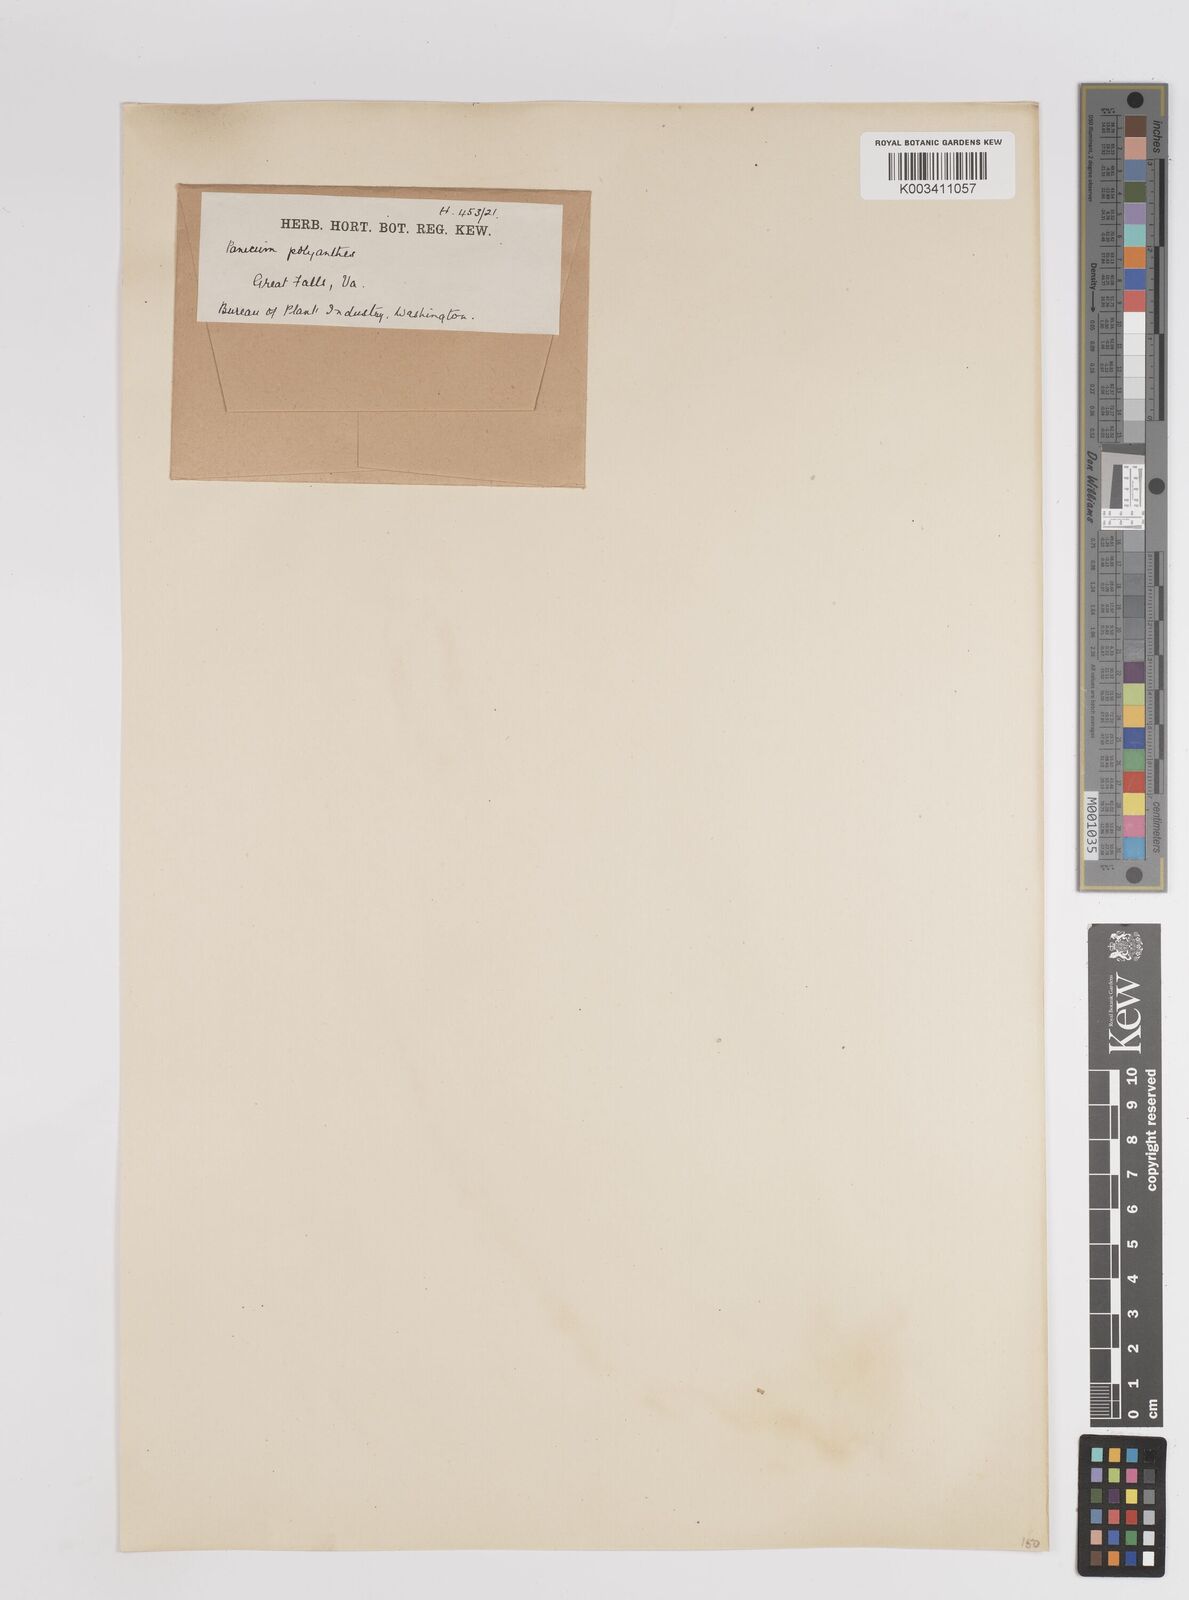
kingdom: Plantae
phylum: Tracheophyta
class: Liliopsida
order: Poales
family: Poaceae
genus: Dichanthelium
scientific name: Dichanthelium polyanthes
